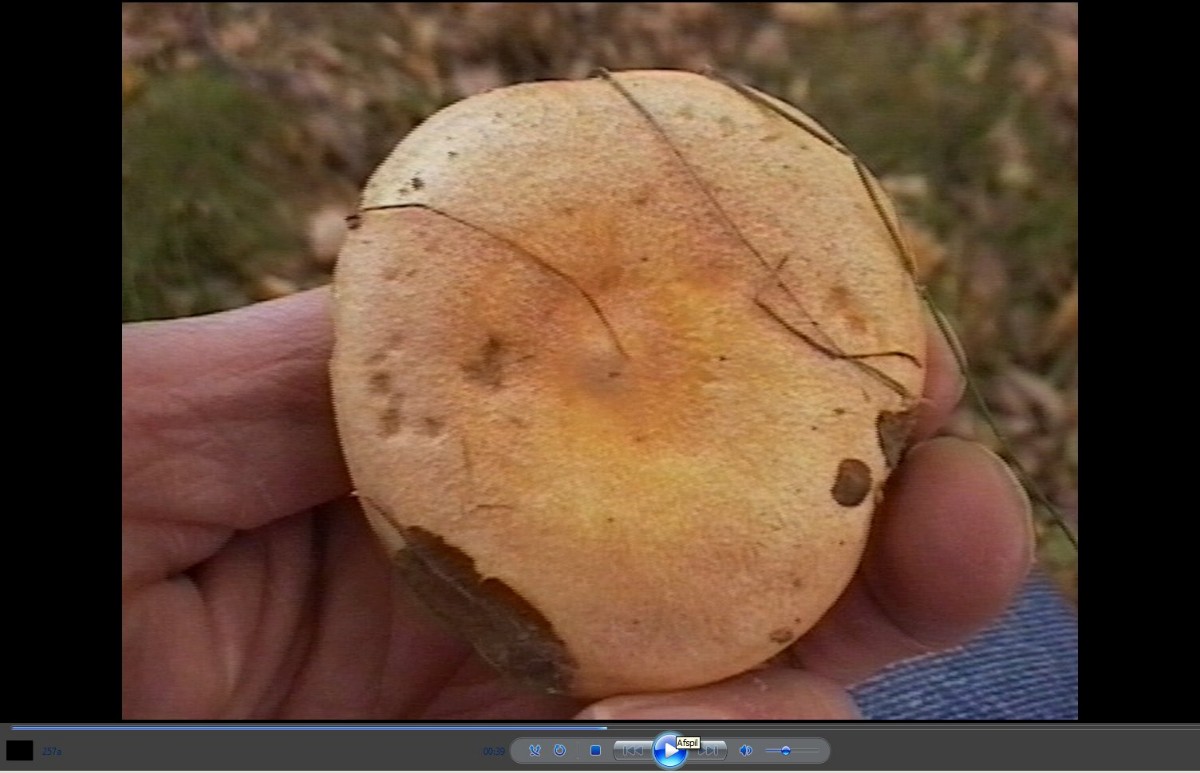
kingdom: Fungi
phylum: Basidiomycota
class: Agaricomycetes
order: Russulales
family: Russulaceae
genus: Lactarius
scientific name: Lactarius chrysorrheus
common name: svovlmælket mælkehat
